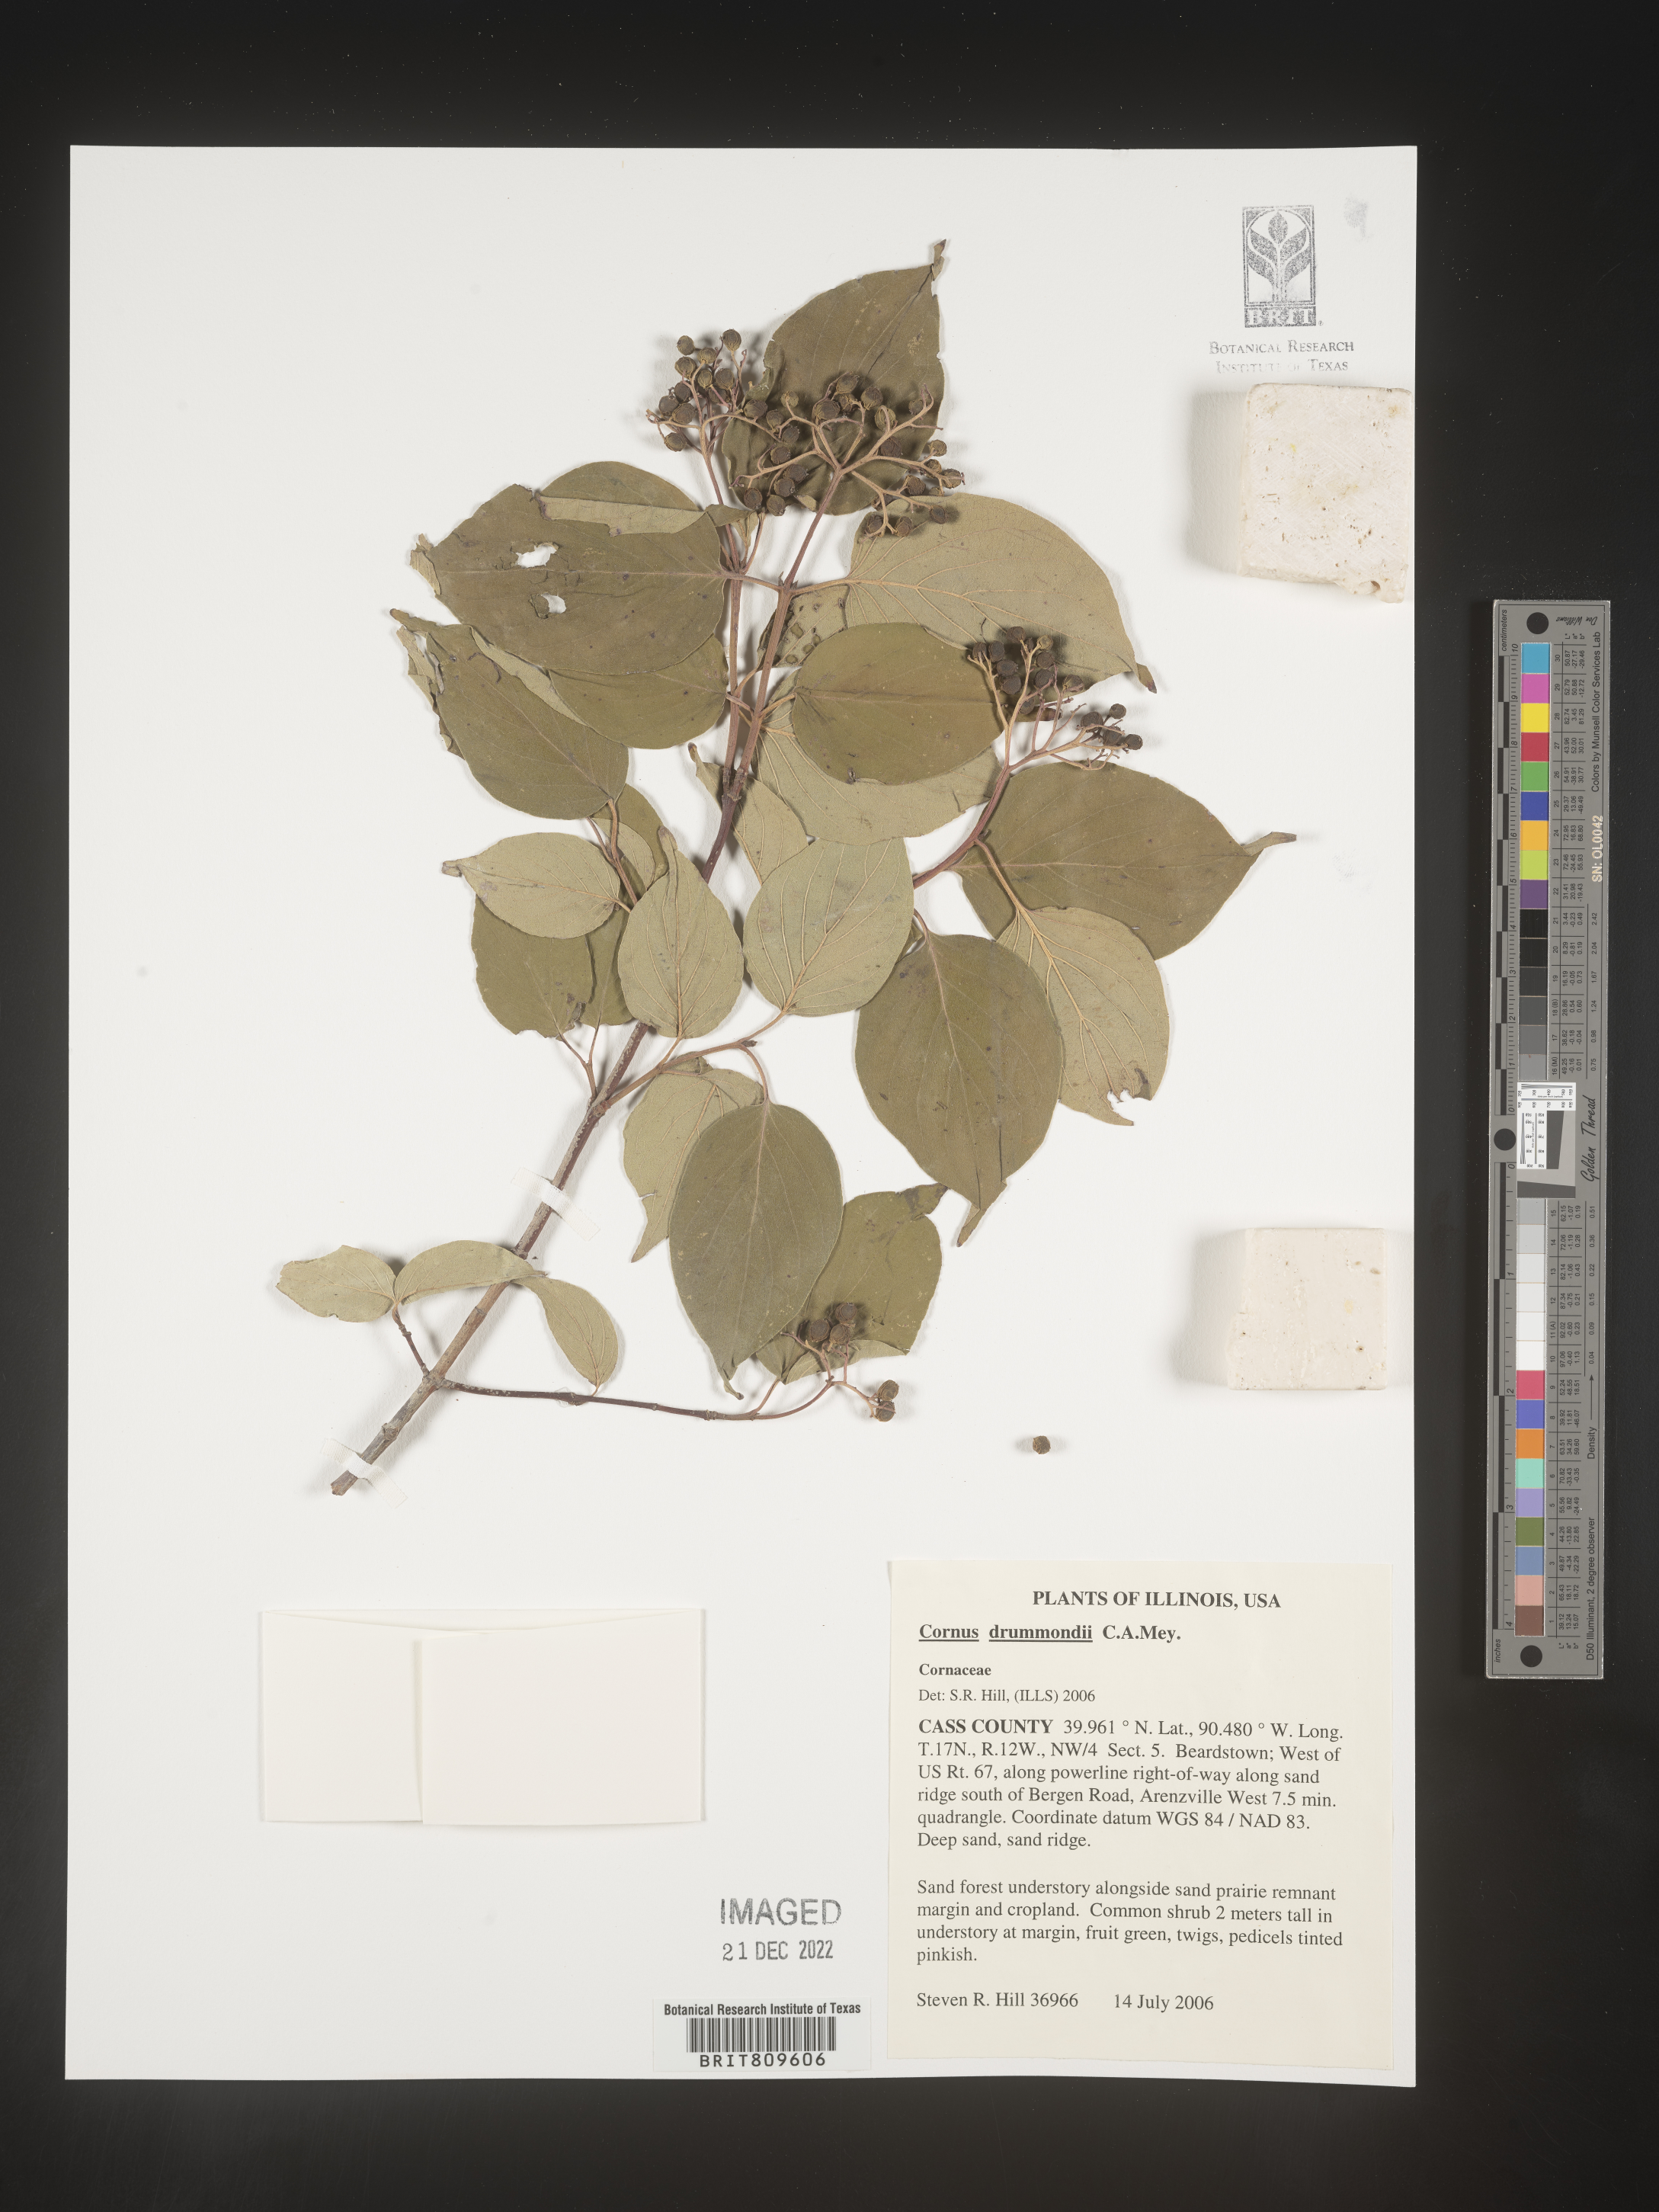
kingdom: Plantae
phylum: Tracheophyta
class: Magnoliopsida
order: Cornales
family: Cornaceae
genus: Cornus
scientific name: Cornus drummondii
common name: Rough-leaf dogwood
